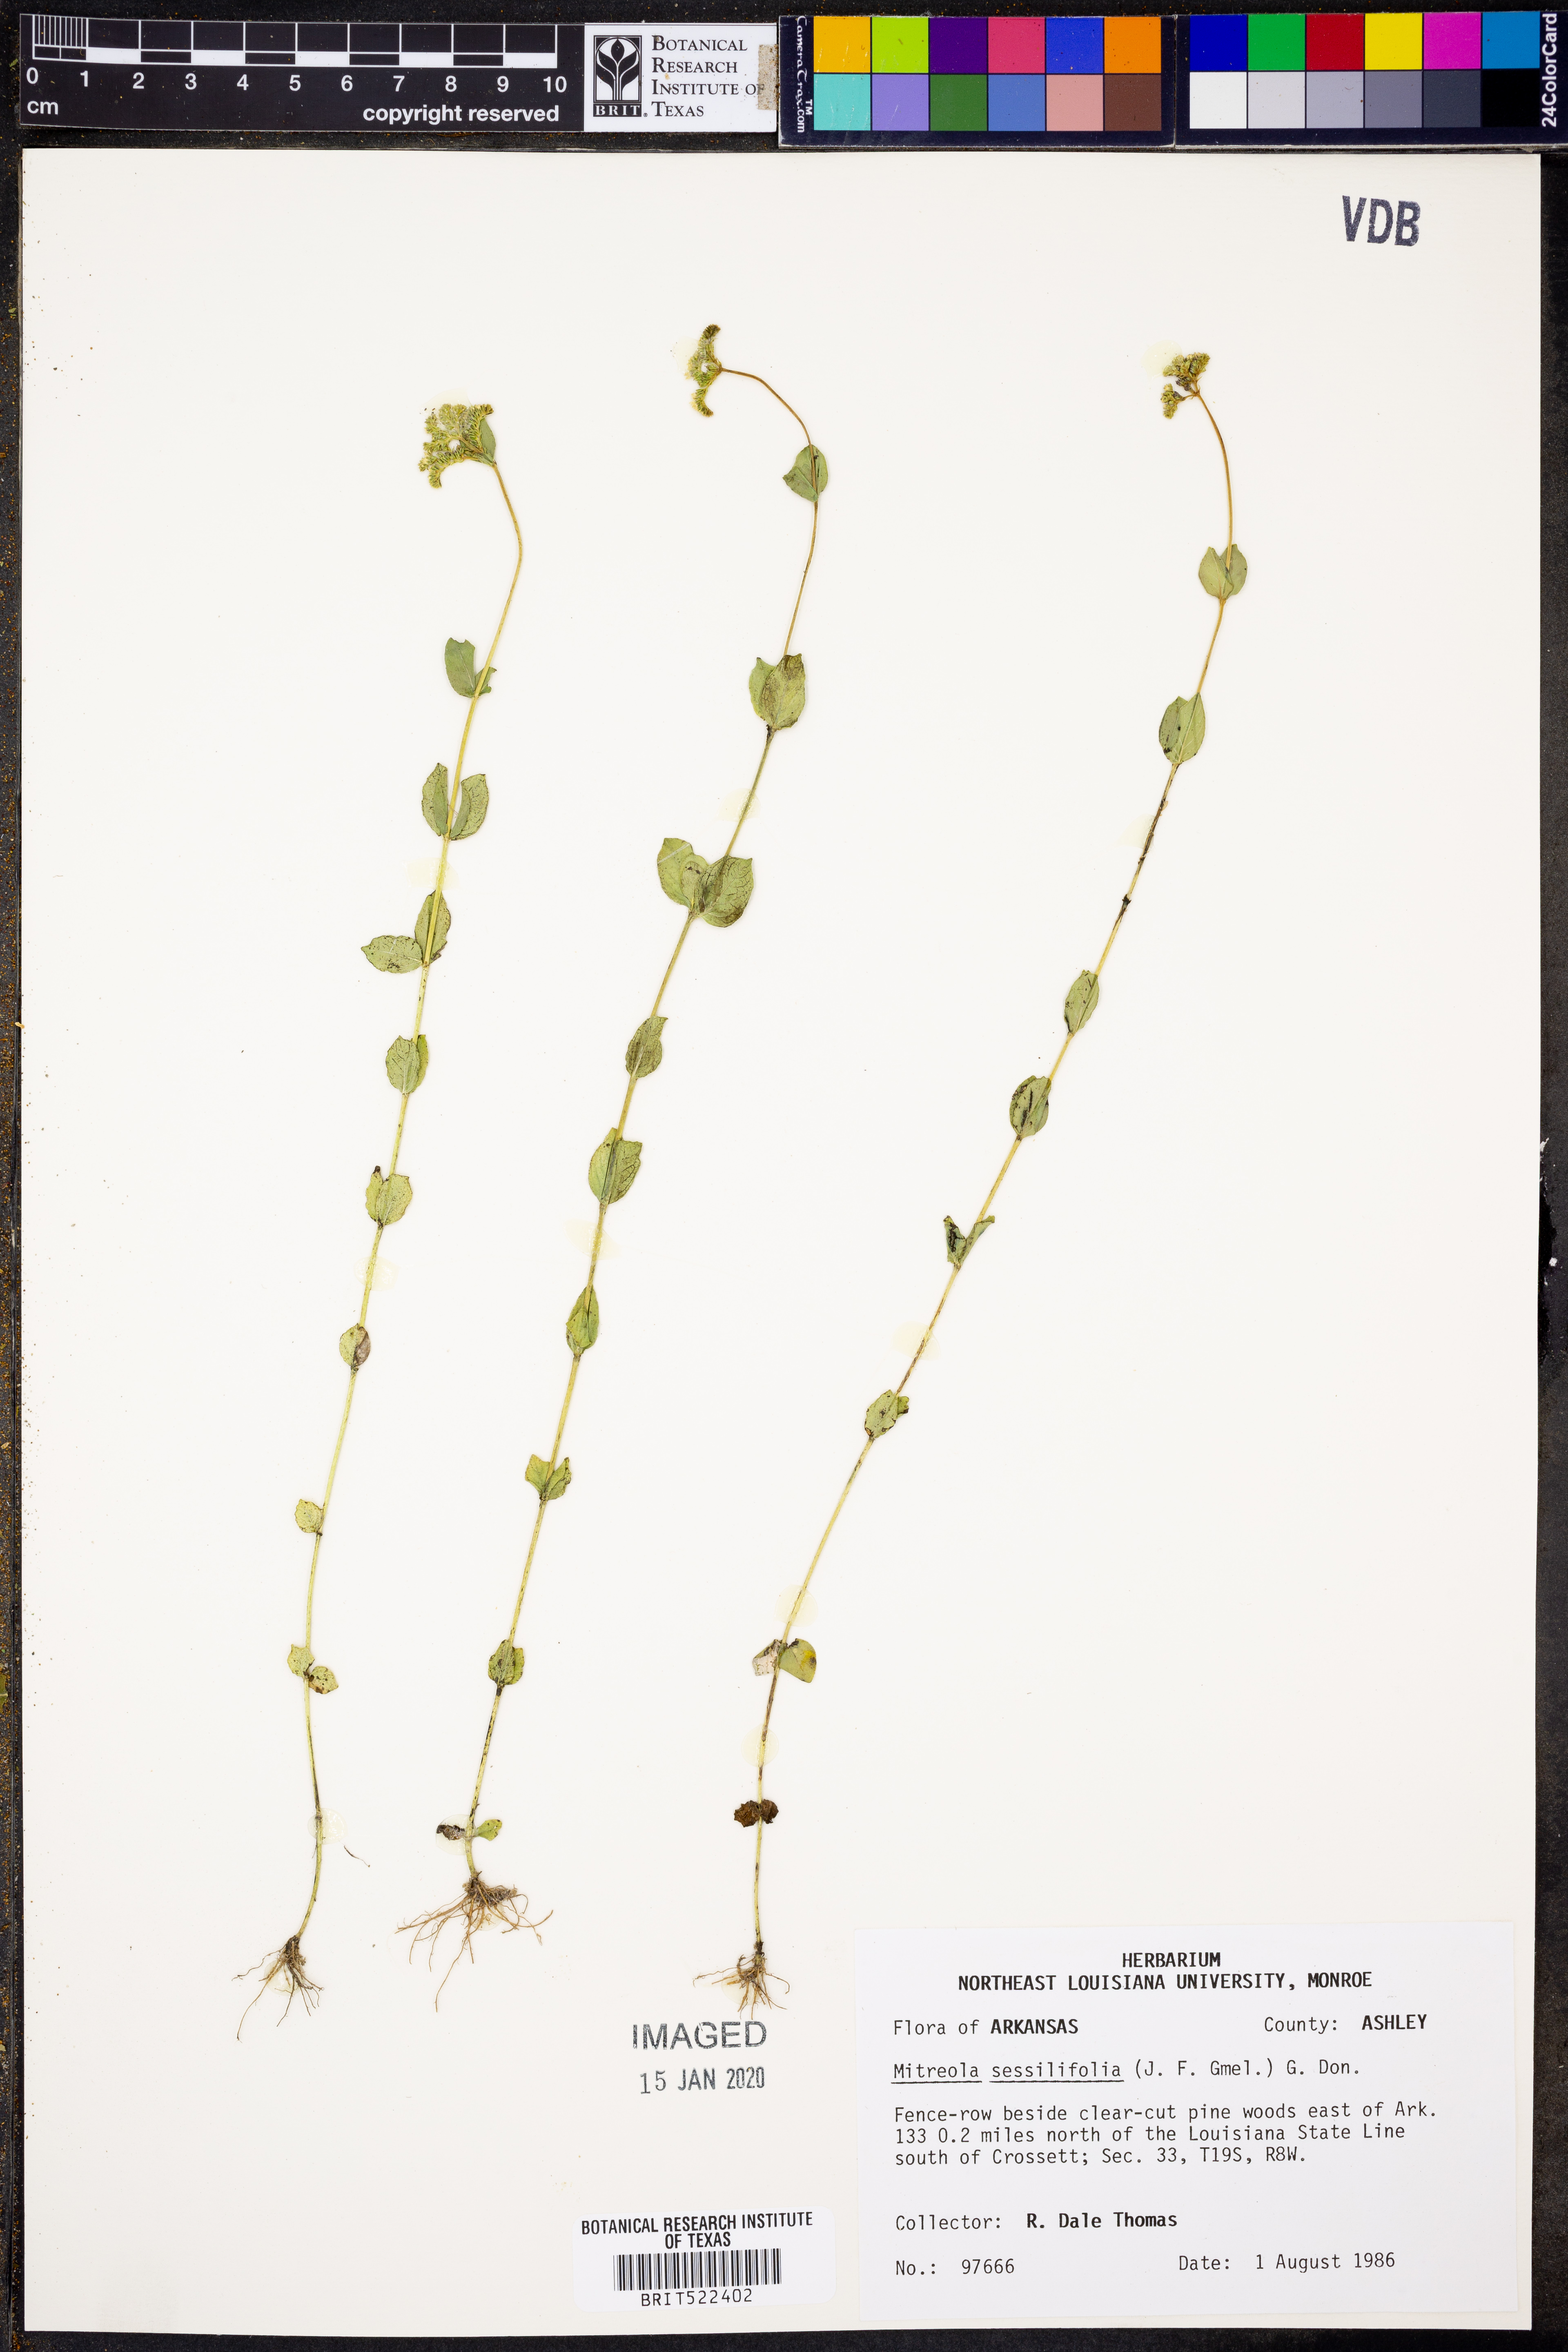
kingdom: Plantae
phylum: Tracheophyta
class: Magnoliopsida
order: Gentianales
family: Loganiaceae
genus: Mitreola
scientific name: Mitreola sessilifolia
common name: Swamp hornpod
